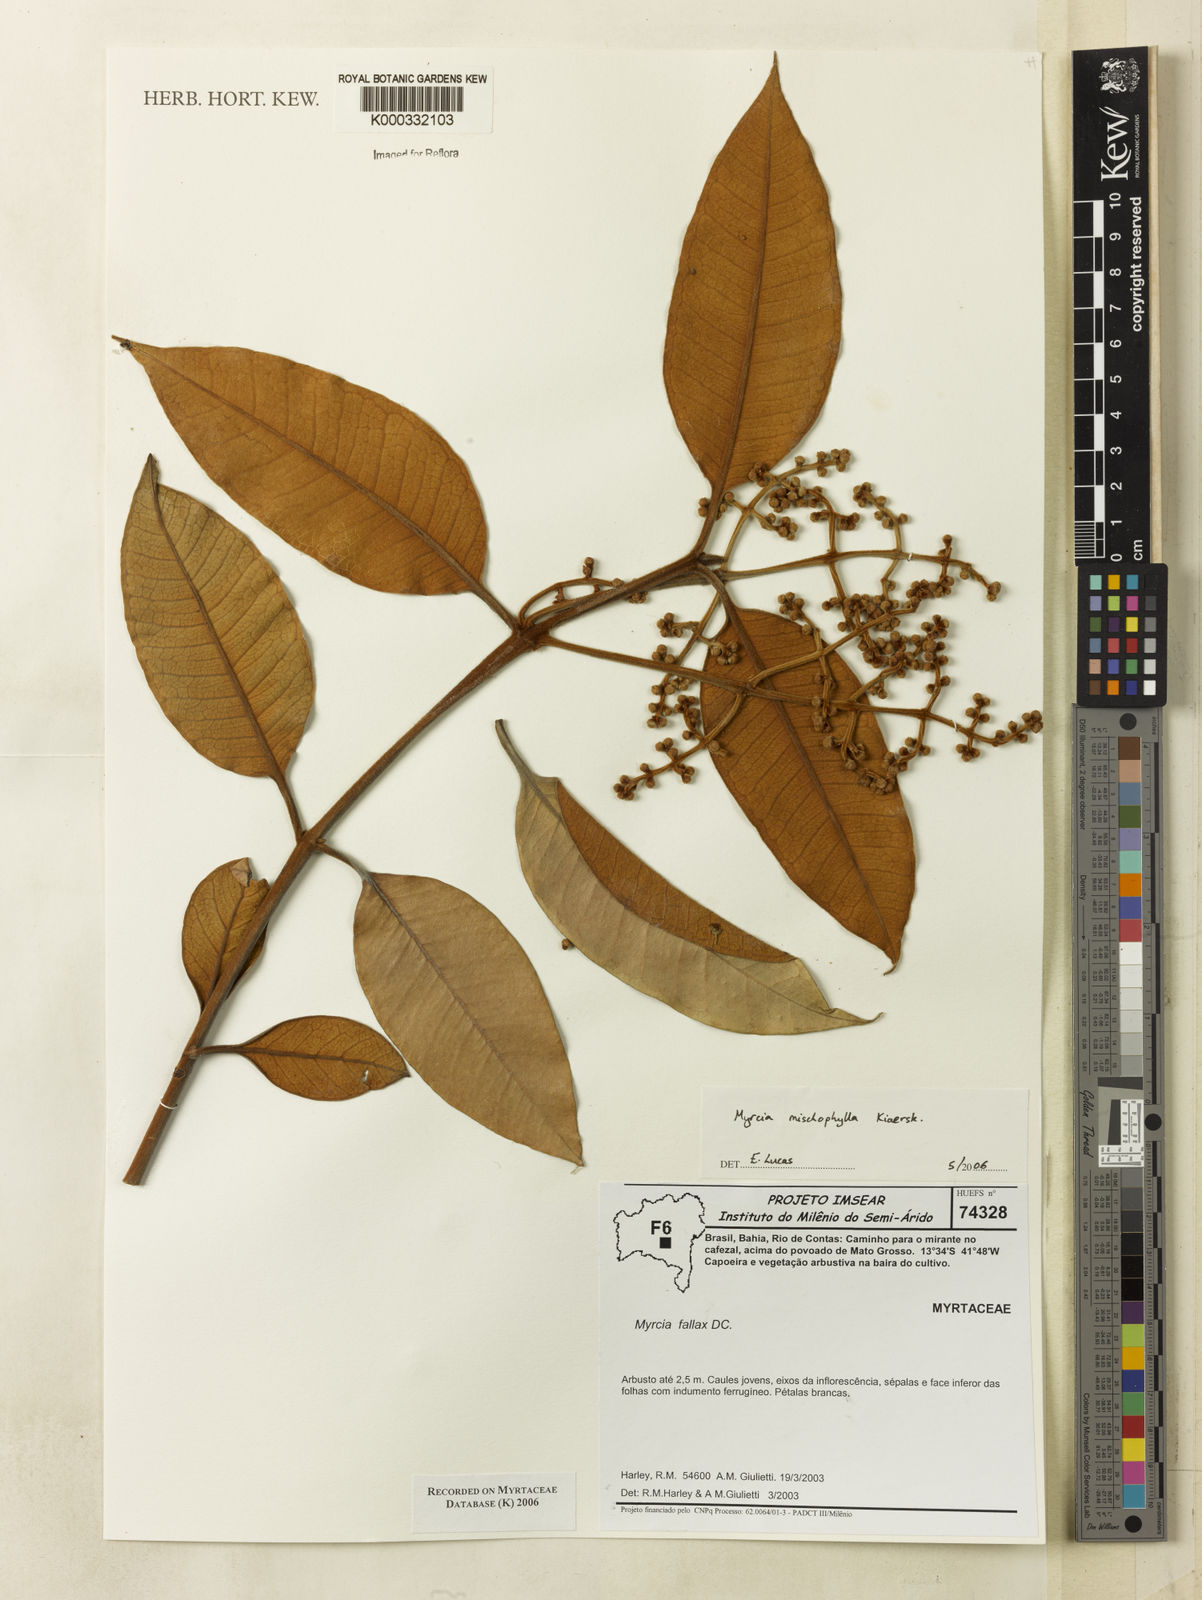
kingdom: Plantae
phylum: Tracheophyta
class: Magnoliopsida
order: Myrtales
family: Myrtaceae
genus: Myrcia
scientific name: Myrcia mischophylla
